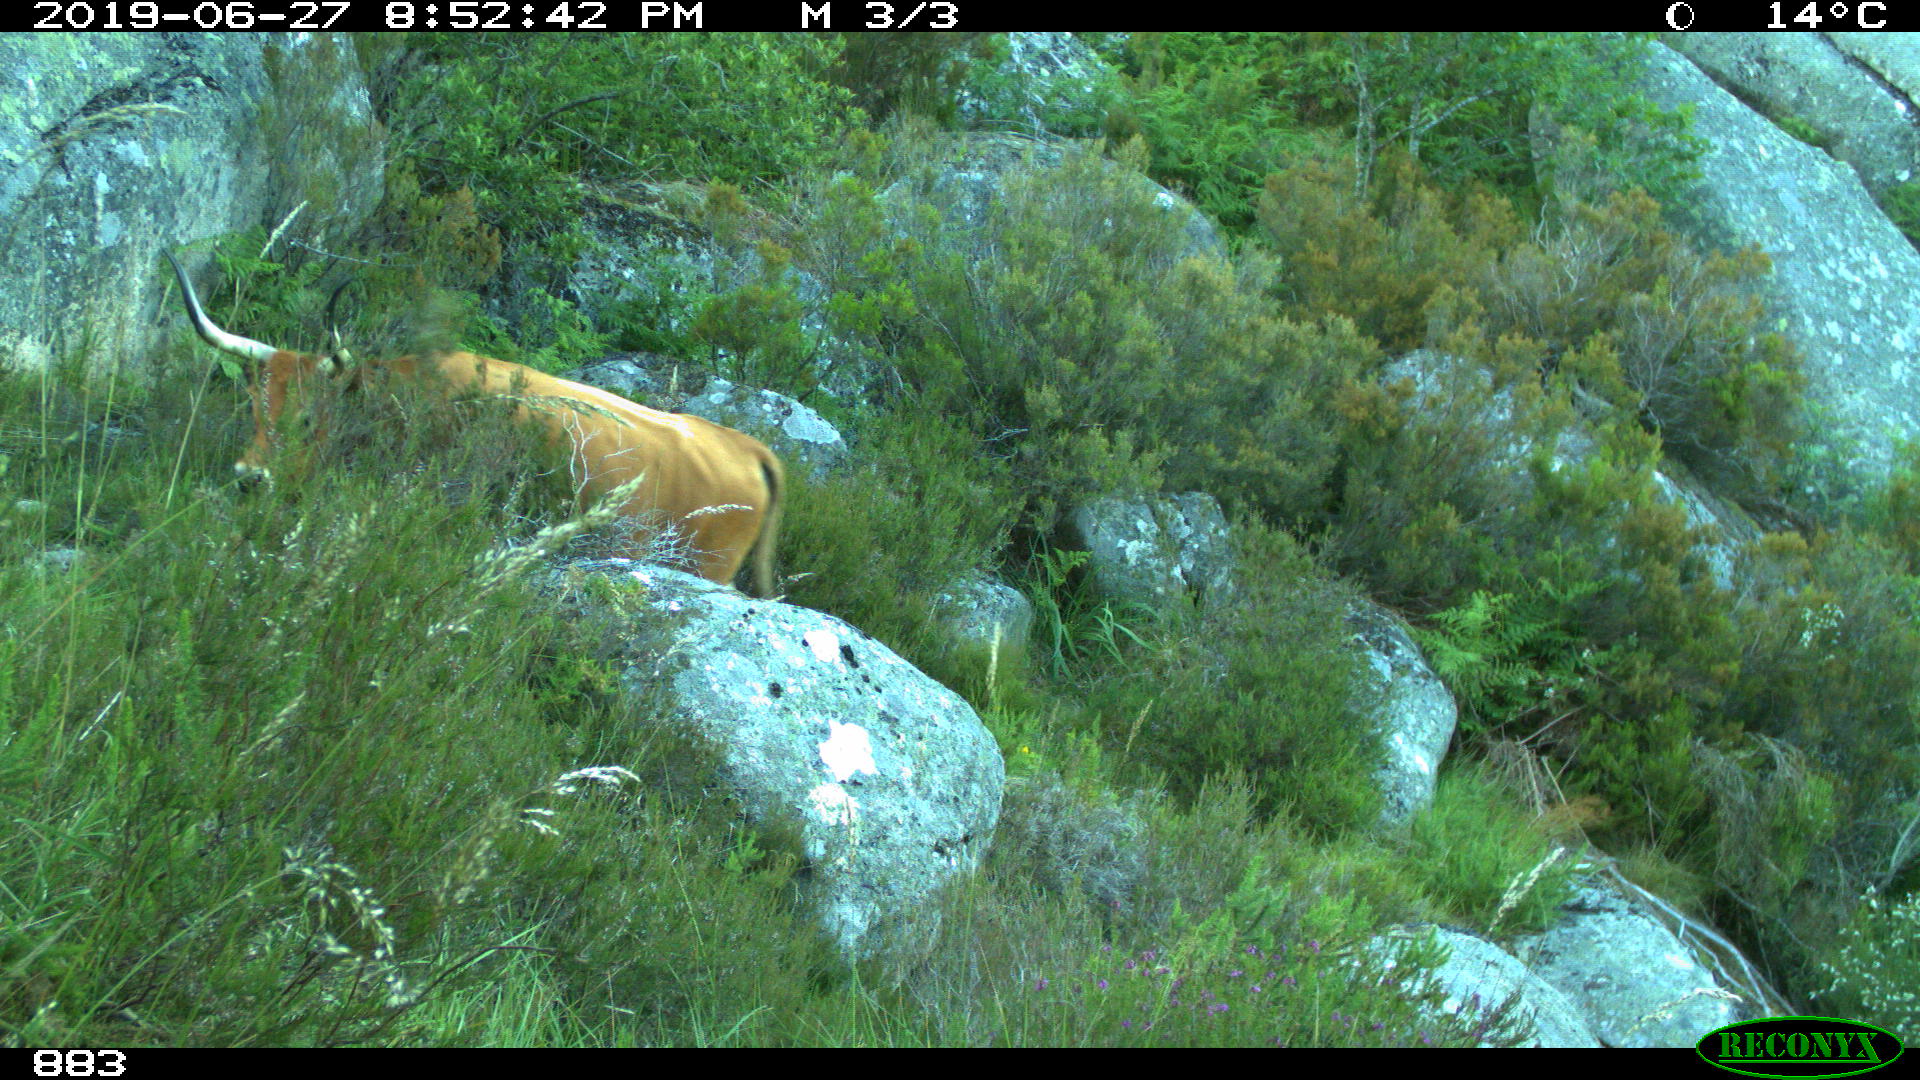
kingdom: Animalia
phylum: Chordata
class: Mammalia
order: Artiodactyla
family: Bovidae
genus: Bos
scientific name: Bos taurus
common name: Domesticated cattle
